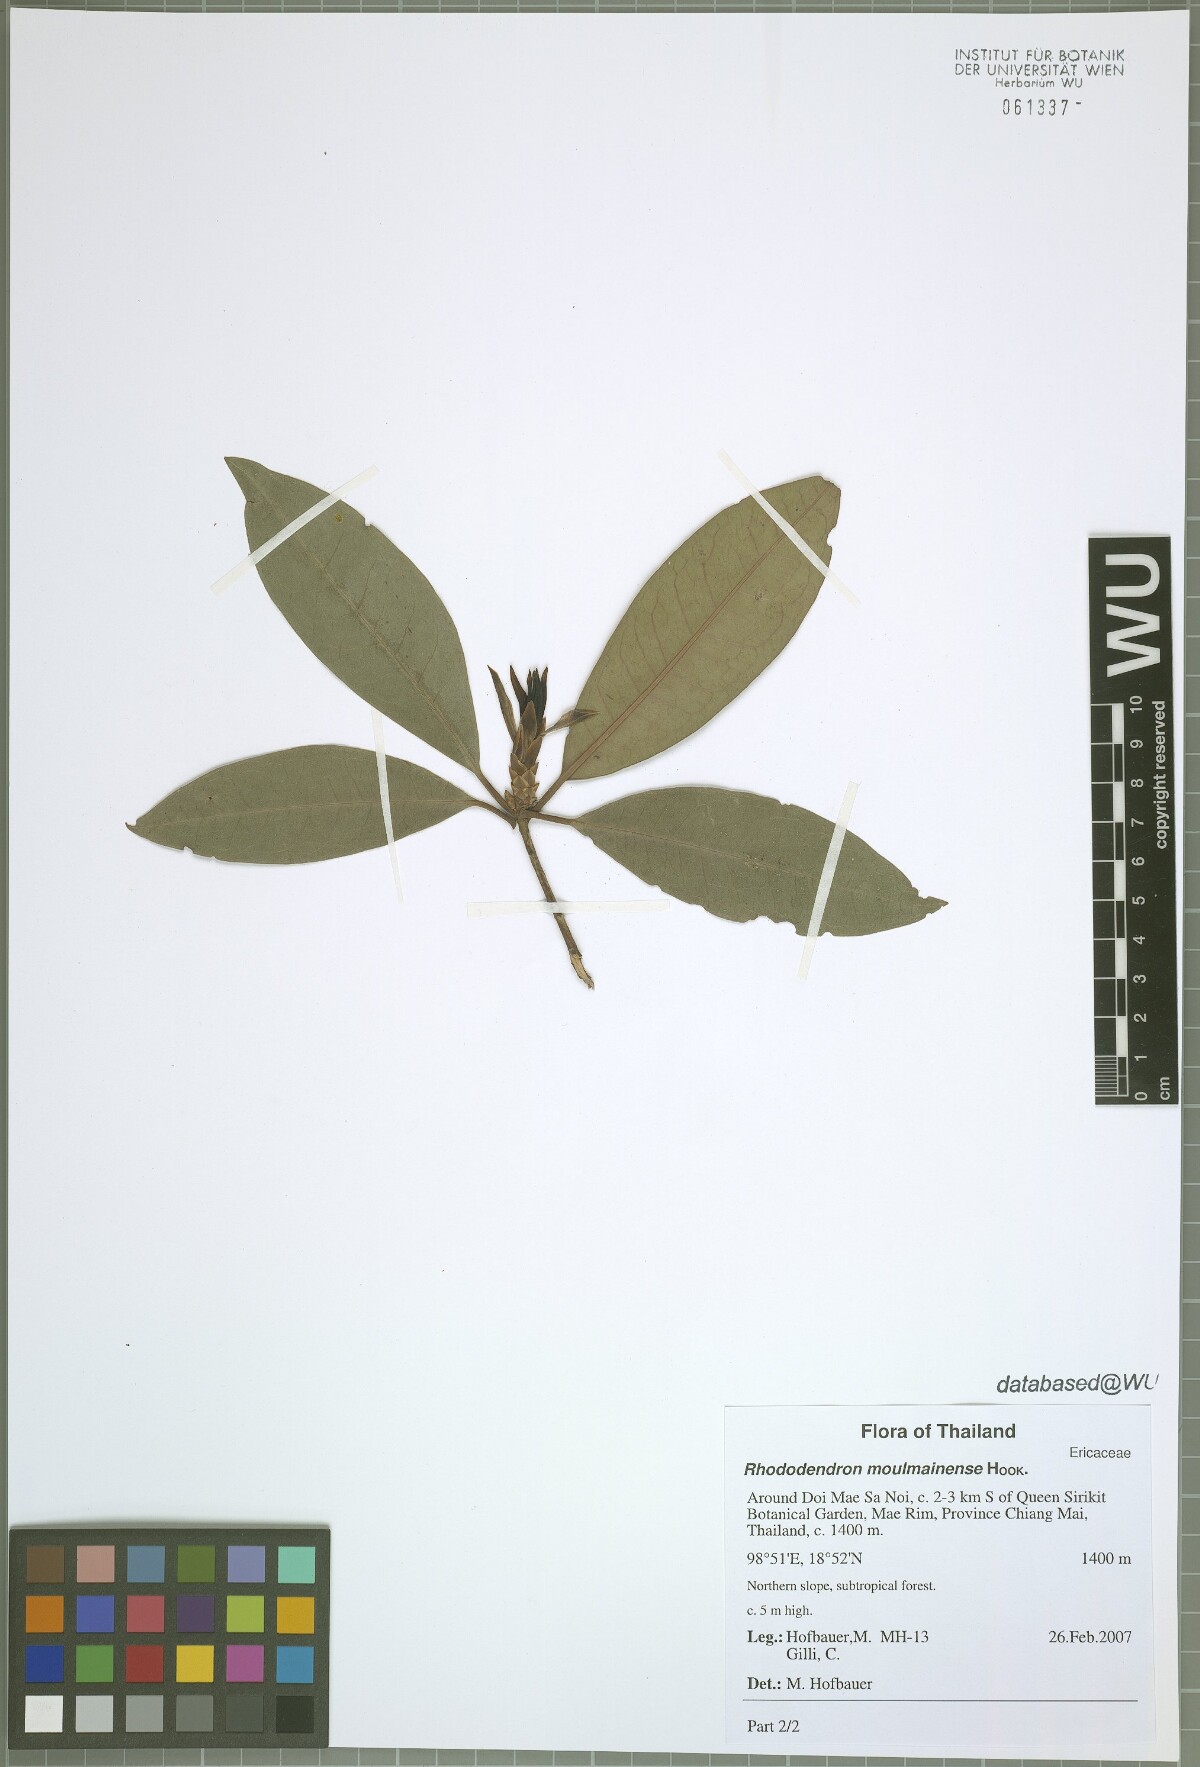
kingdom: Plantae
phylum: Tracheophyta
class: Magnoliopsida
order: Ericales
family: Ericaceae
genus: Rhododendron
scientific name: Rhododendron moulmainense
